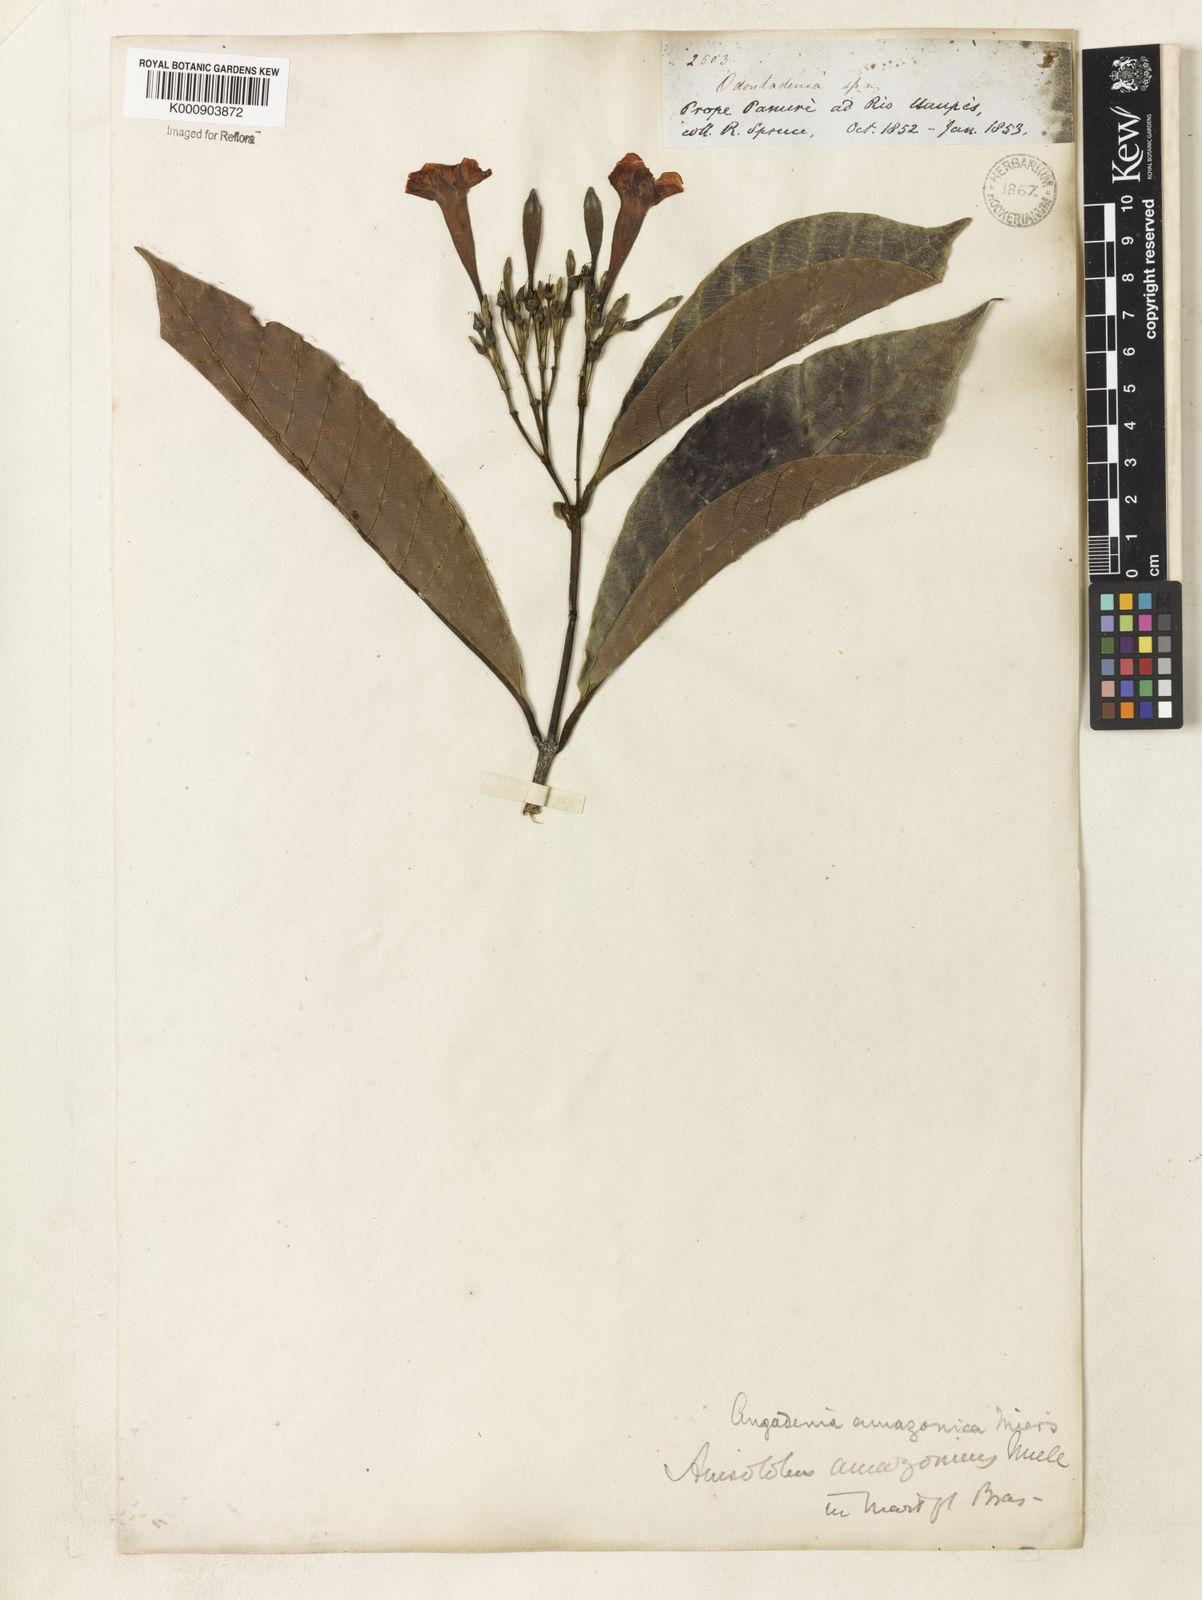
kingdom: Plantae
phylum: Tracheophyta
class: Magnoliopsida
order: Gentianales
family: Apocynaceae
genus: Odontadenia
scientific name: Odontadenia verrucosa
